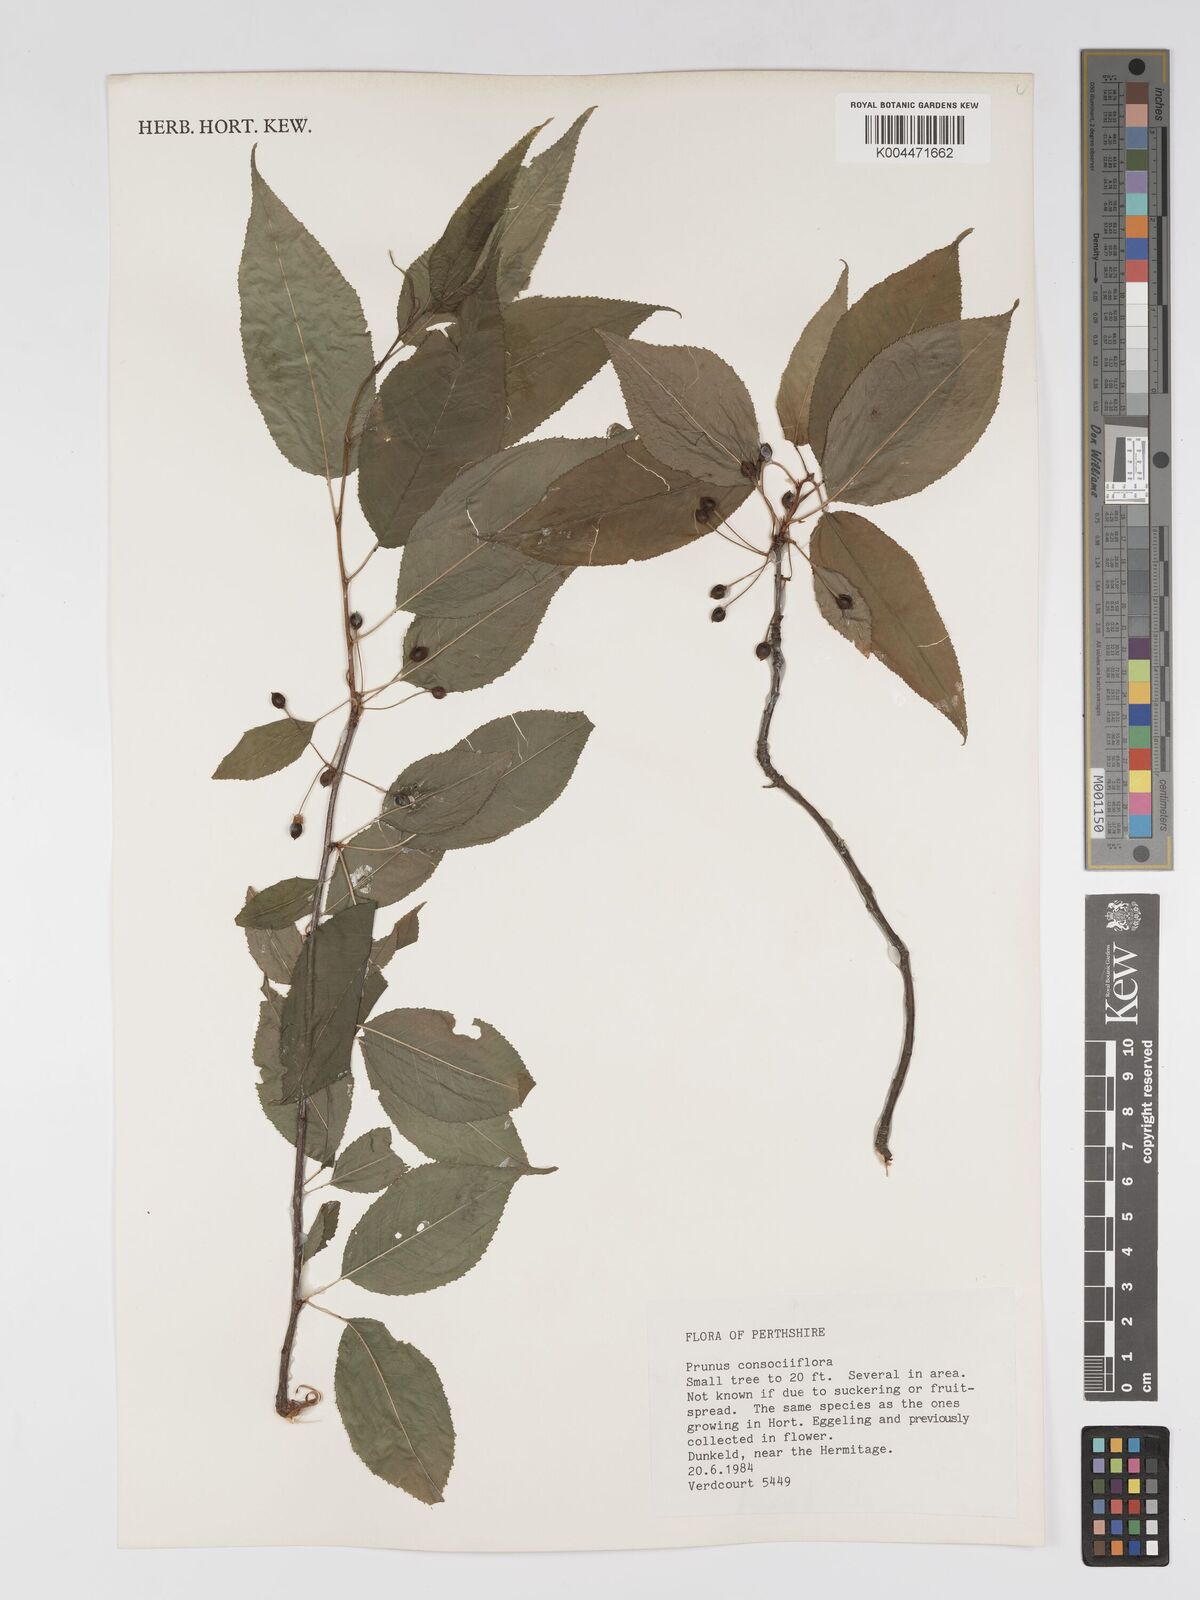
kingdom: Plantae
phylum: Tracheophyta
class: Magnoliopsida
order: Rosales
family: Rosaceae
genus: Prunus
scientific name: Prunus japonica
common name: Chinese bush cherry
